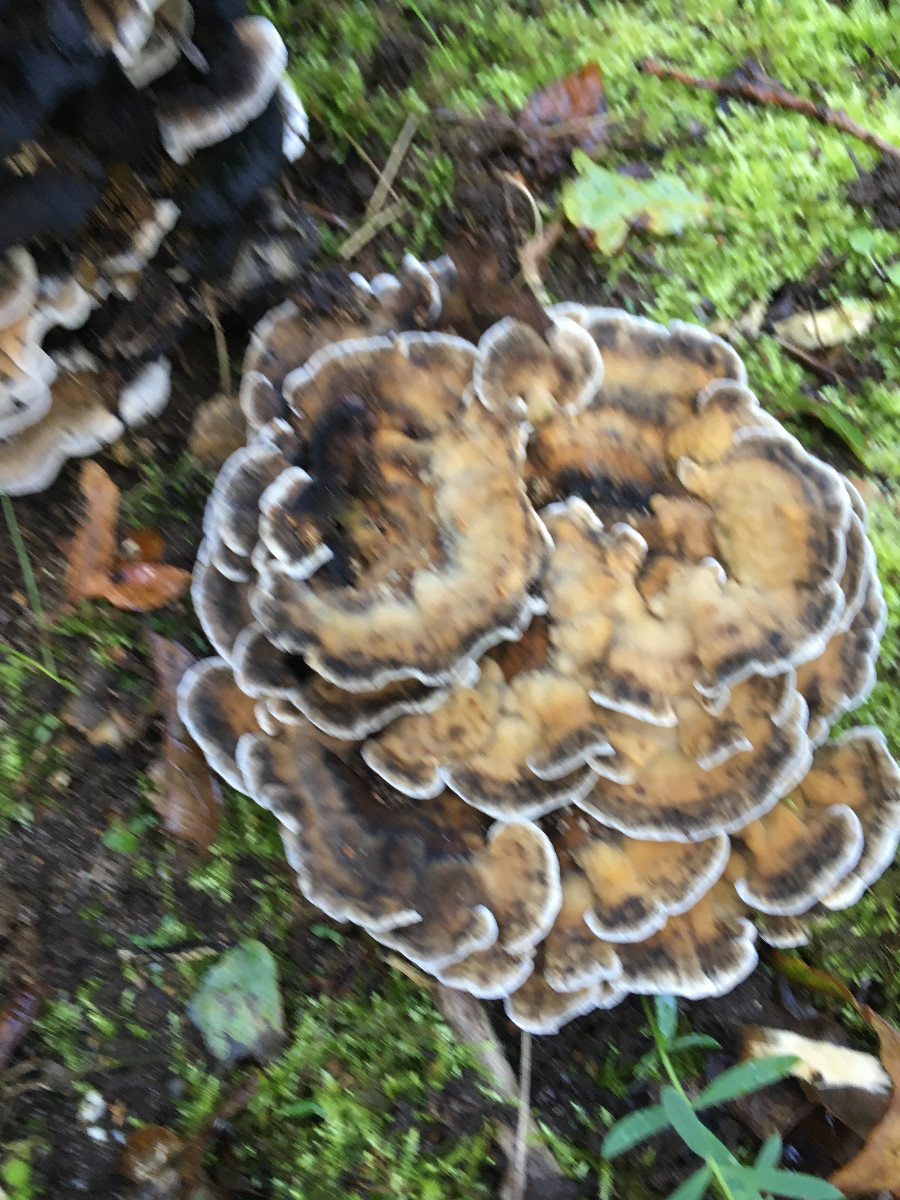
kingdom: Fungi
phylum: Basidiomycota
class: Agaricomycetes
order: Polyporales
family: Phanerochaetaceae
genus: Bjerkandera
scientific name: Bjerkandera adusta
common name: sveden sodporesvamp
